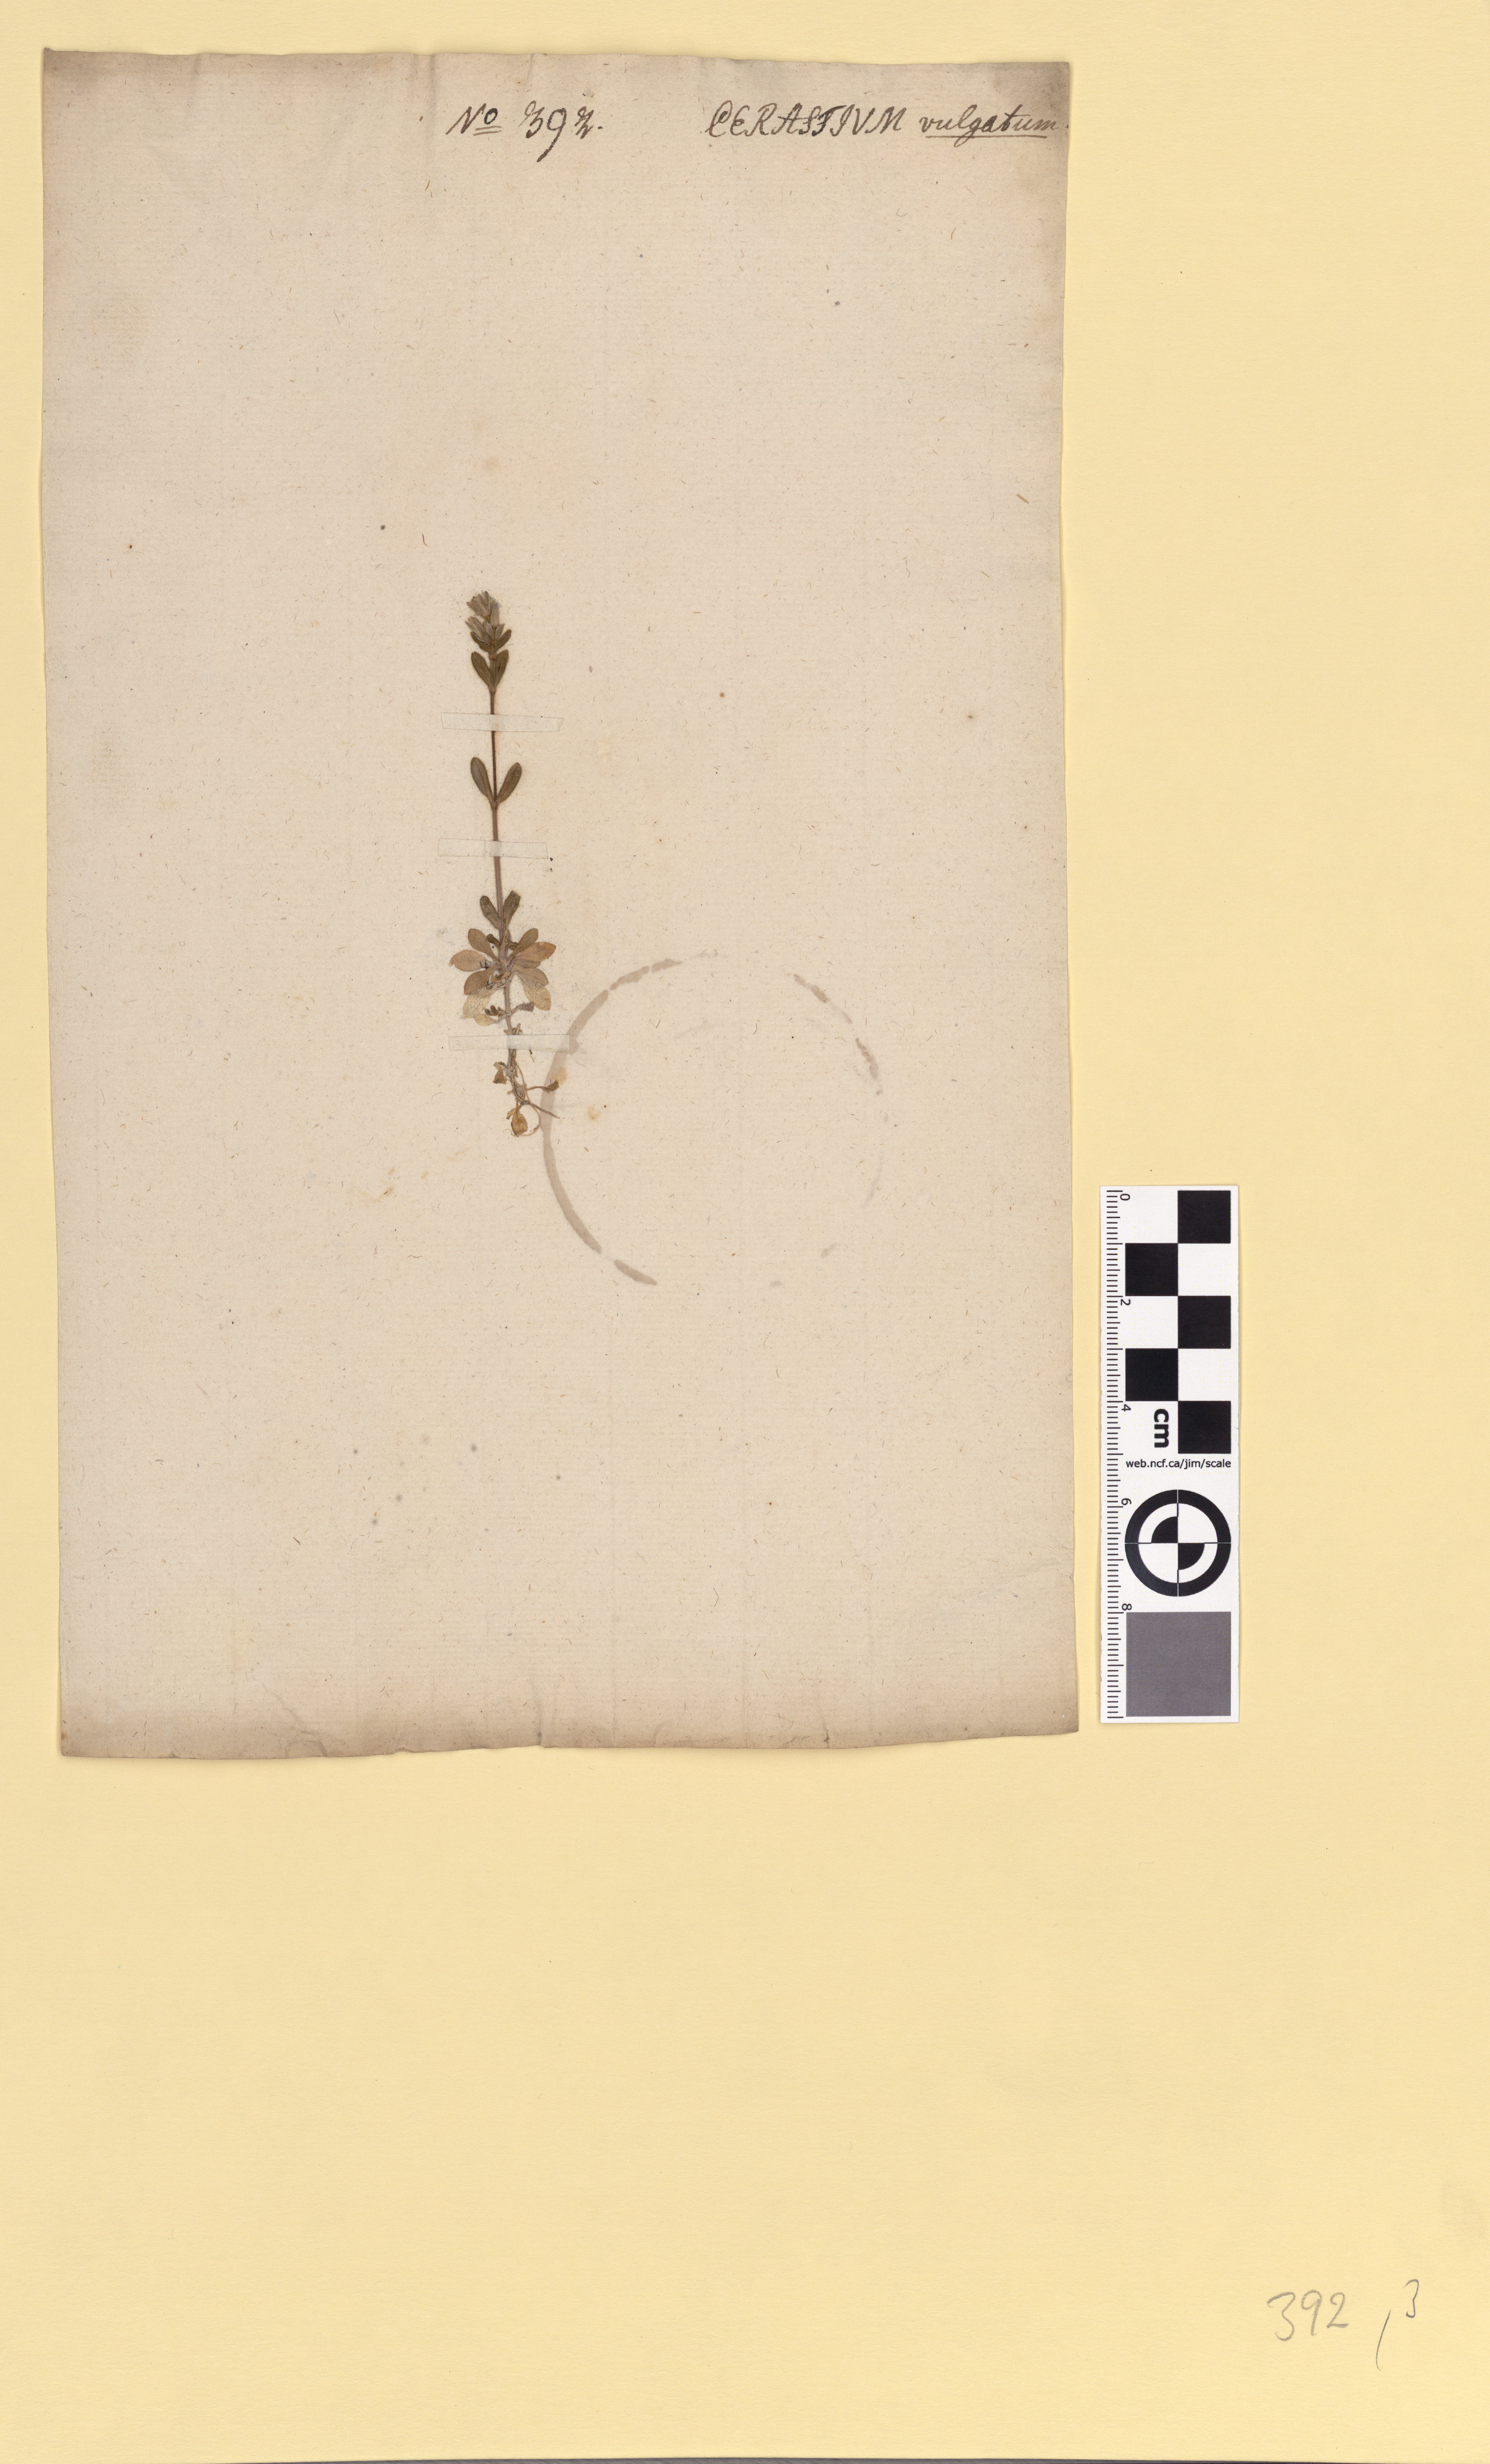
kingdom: Plantae
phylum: Tracheophyta
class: Magnoliopsida
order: Caryophyllales
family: Caryophyllaceae
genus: Cerastium
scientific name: Cerastium holosteoides
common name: Big chickweed
